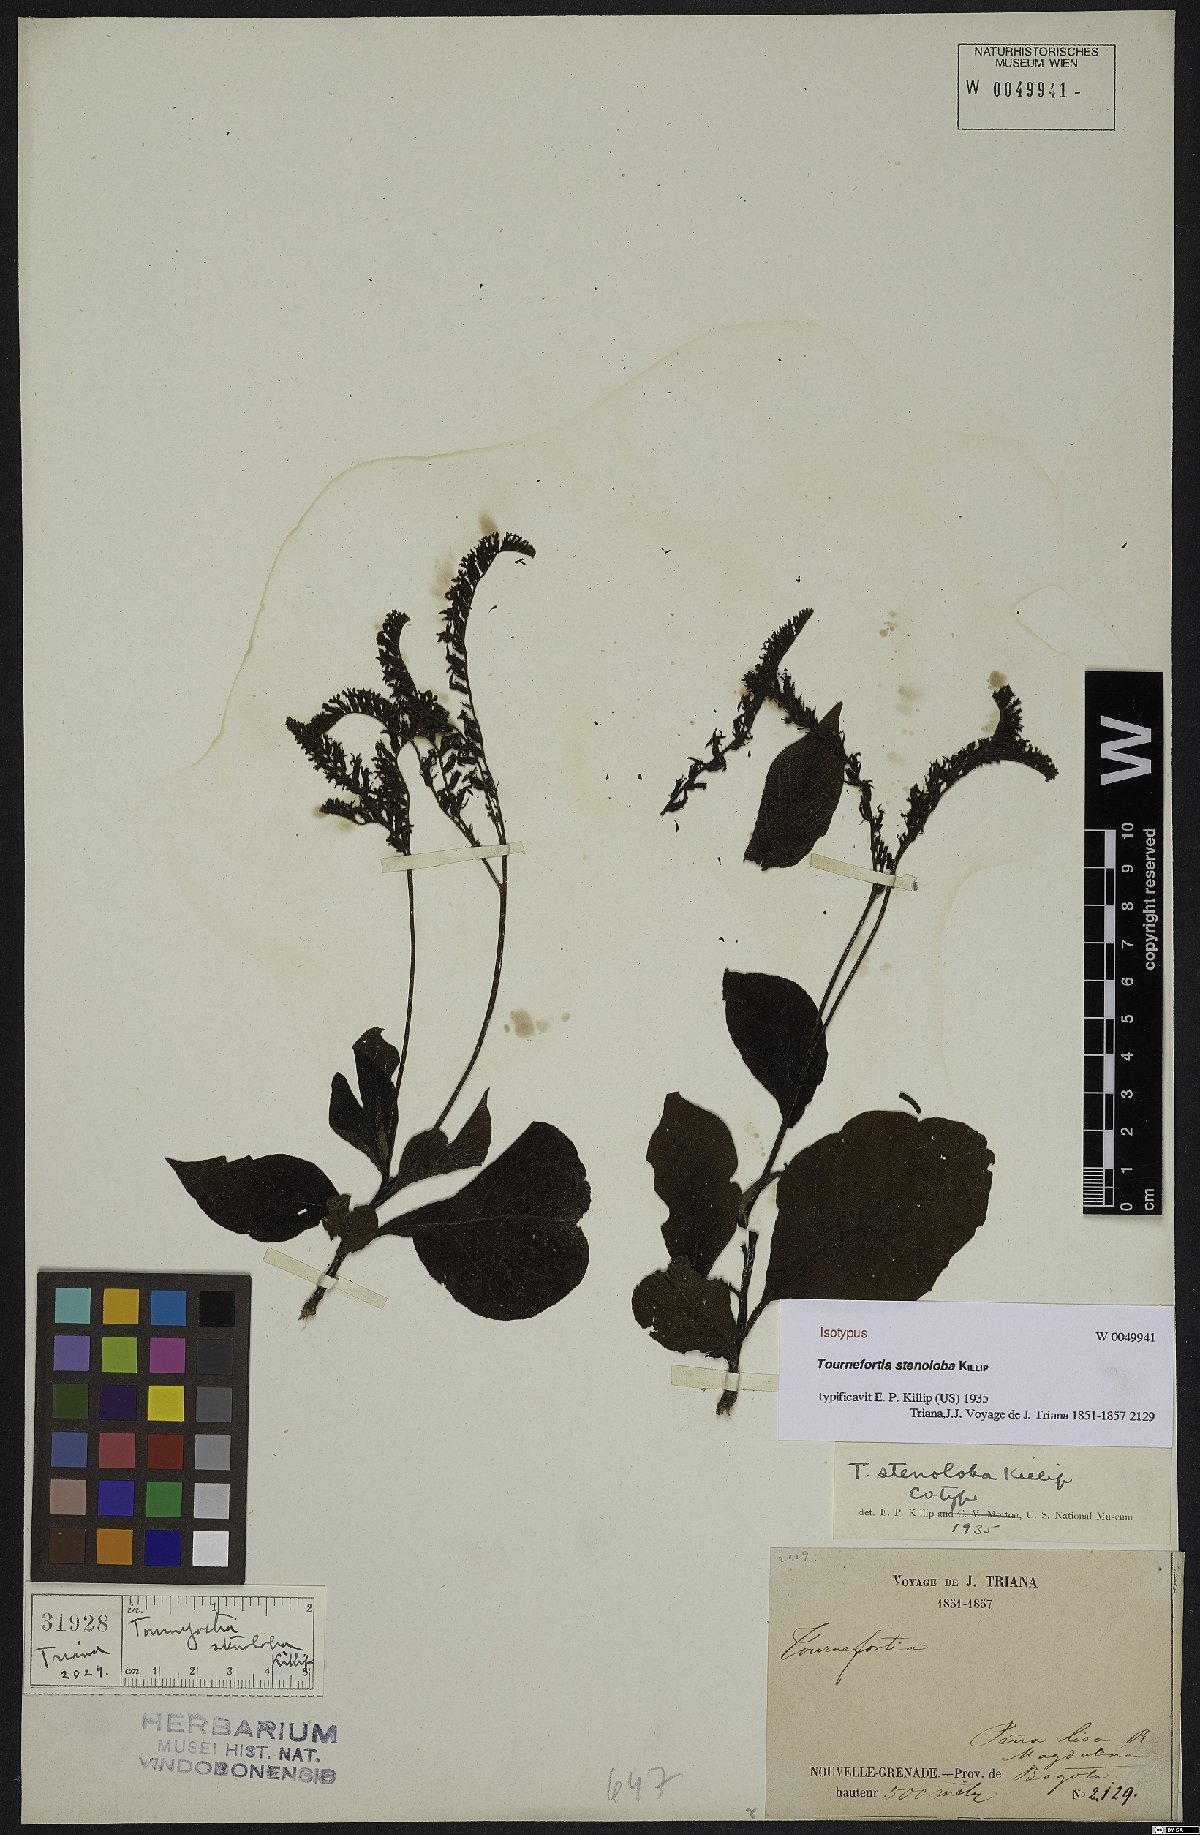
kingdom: Plantae
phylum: Tracheophyta
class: Magnoliopsida
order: Boraginales
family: Heliotropiaceae
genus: Tournefortia
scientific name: Tournefortia stenoloba
